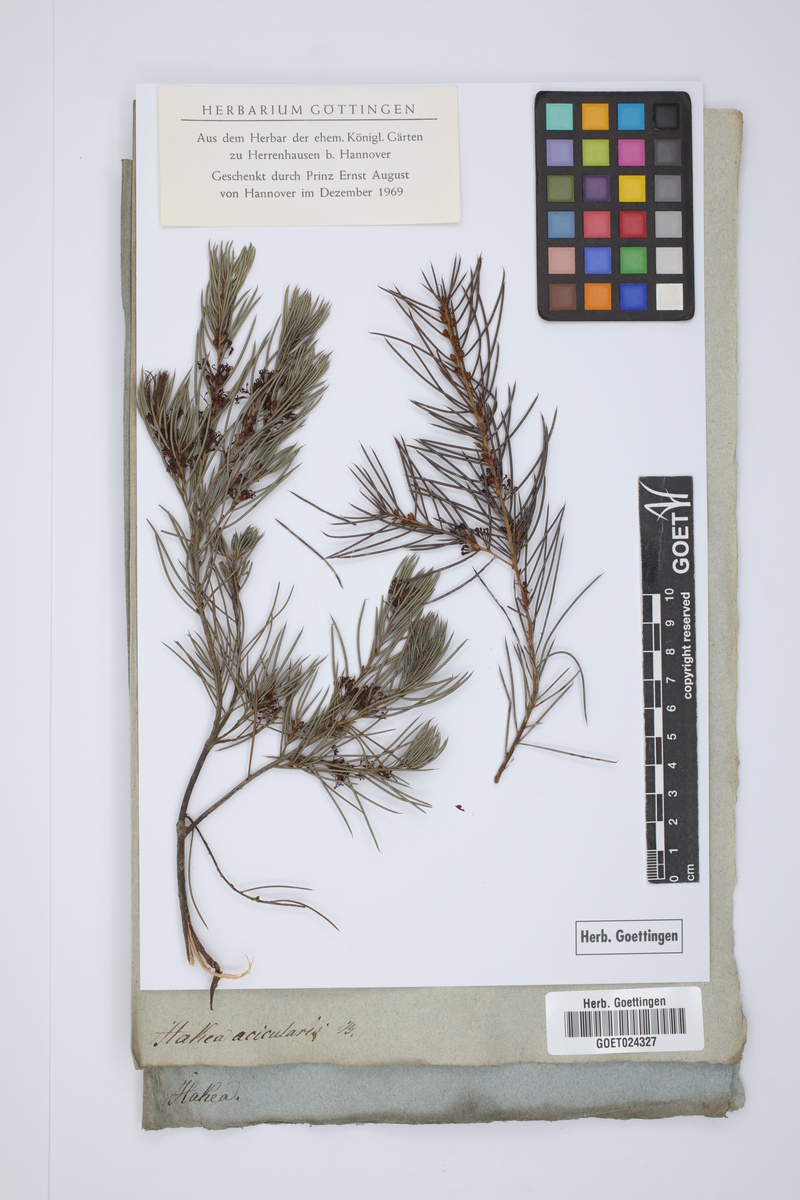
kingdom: Plantae
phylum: Tracheophyta
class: Magnoliopsida
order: Proteales
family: Proteaceae
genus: Hakea
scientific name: Hakea sericea
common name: Needle bush
